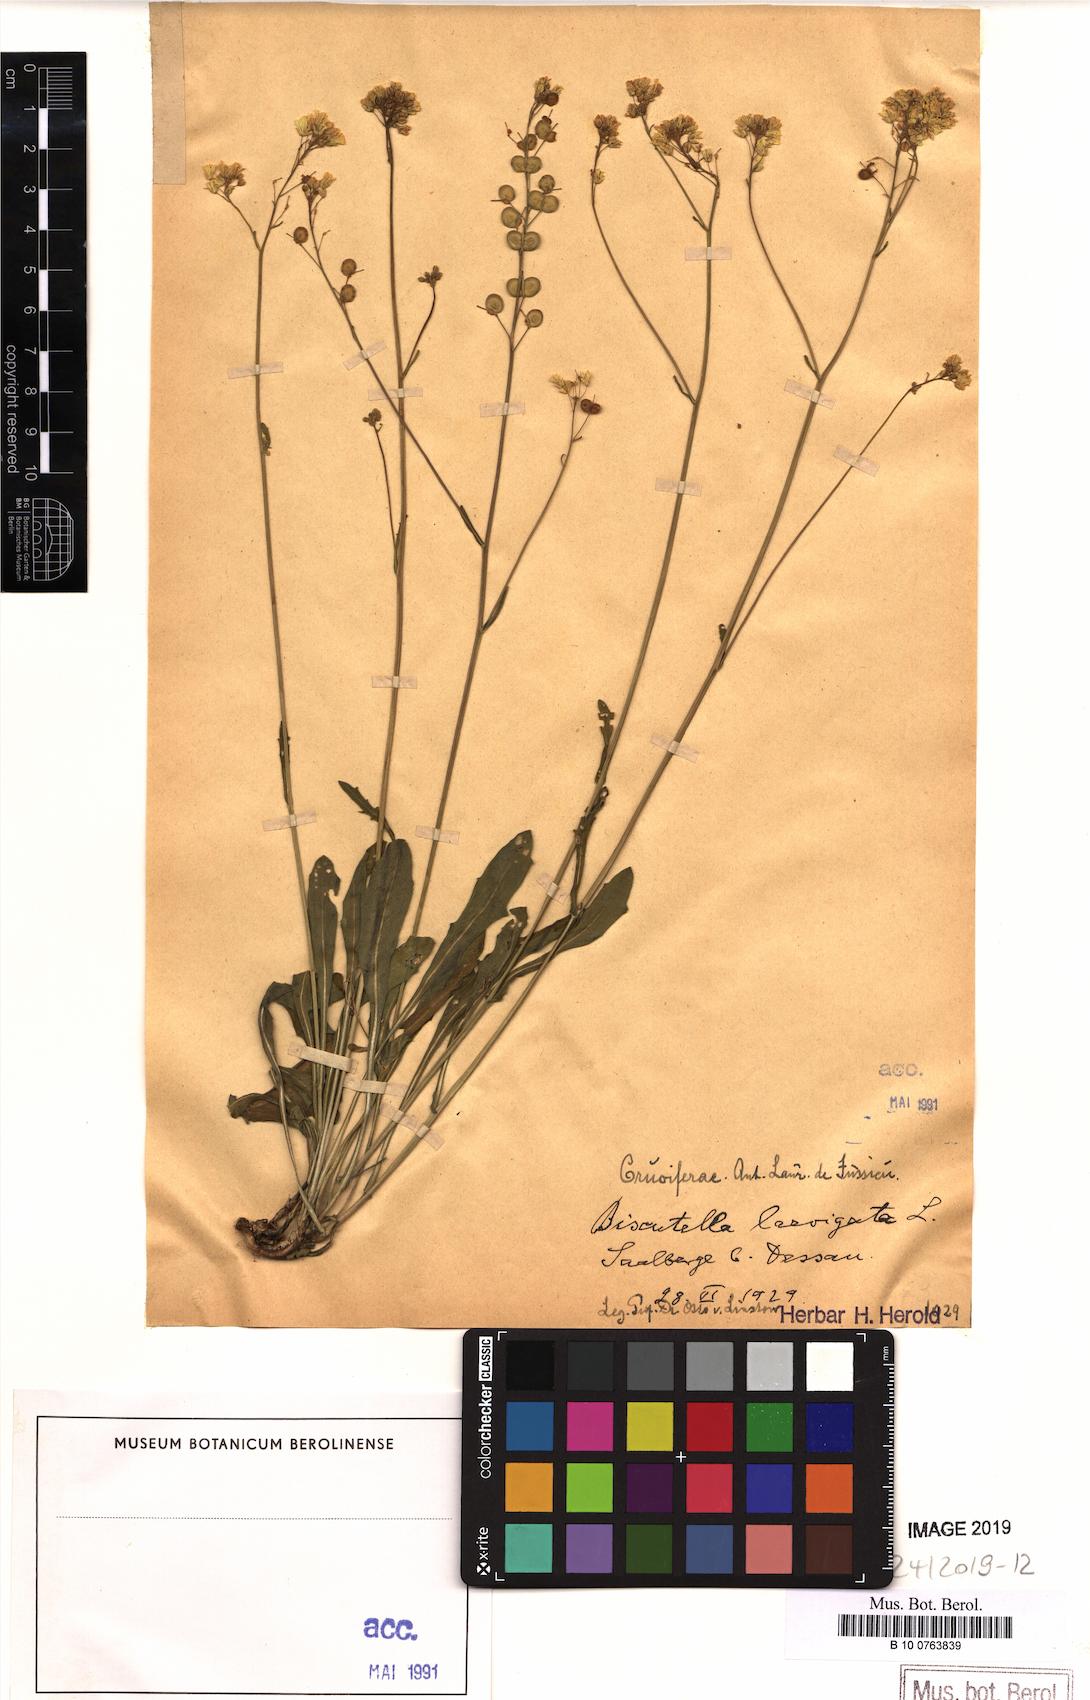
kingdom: Plantae
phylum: Tracheophyta
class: Magnoliopsida
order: Brassicales
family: Brassicaceae
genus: Biscutella
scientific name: Biscutella laevigata
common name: Buckler mustard
